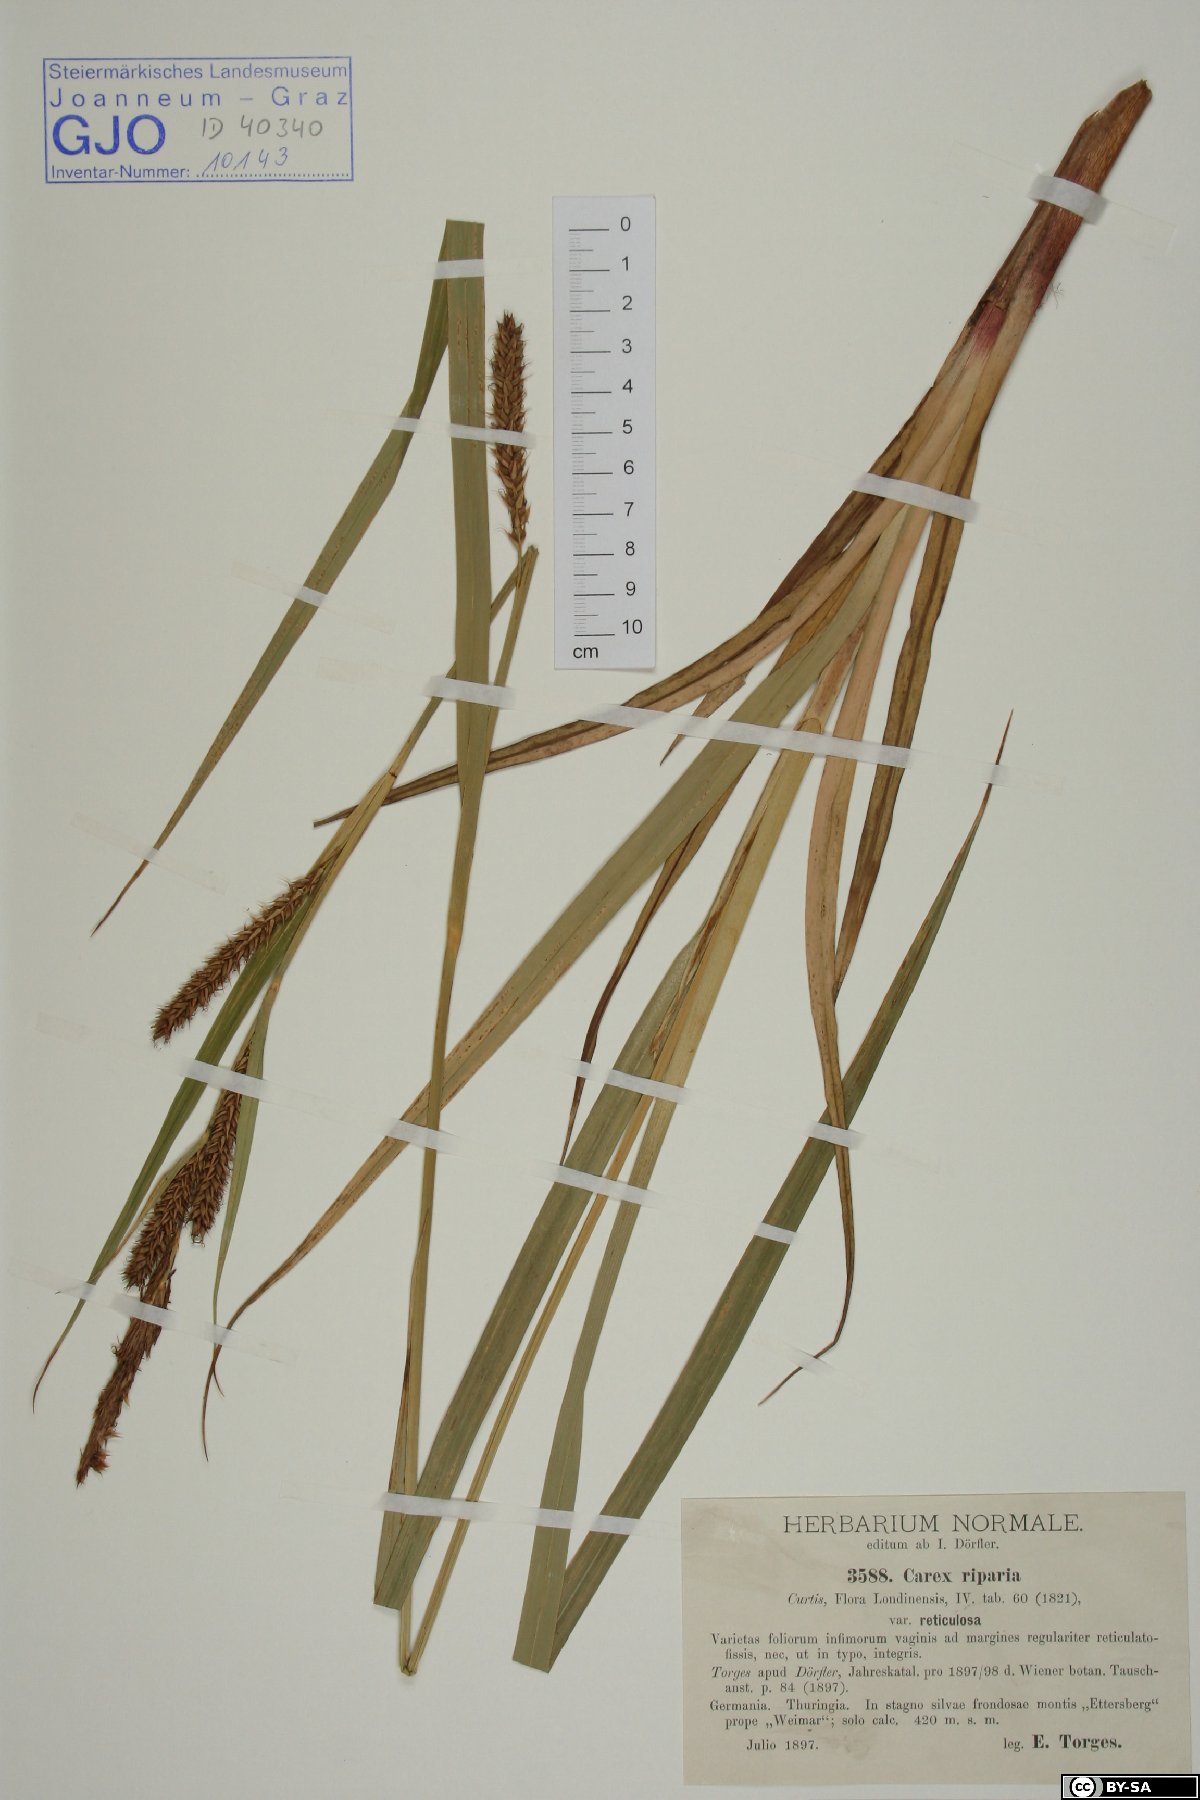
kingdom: Plantae
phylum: Tracheophyta
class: Liliopsida
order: Poales
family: Cyperaceae
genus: Carex
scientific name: Carex riparia
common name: Greater pond-sedge
